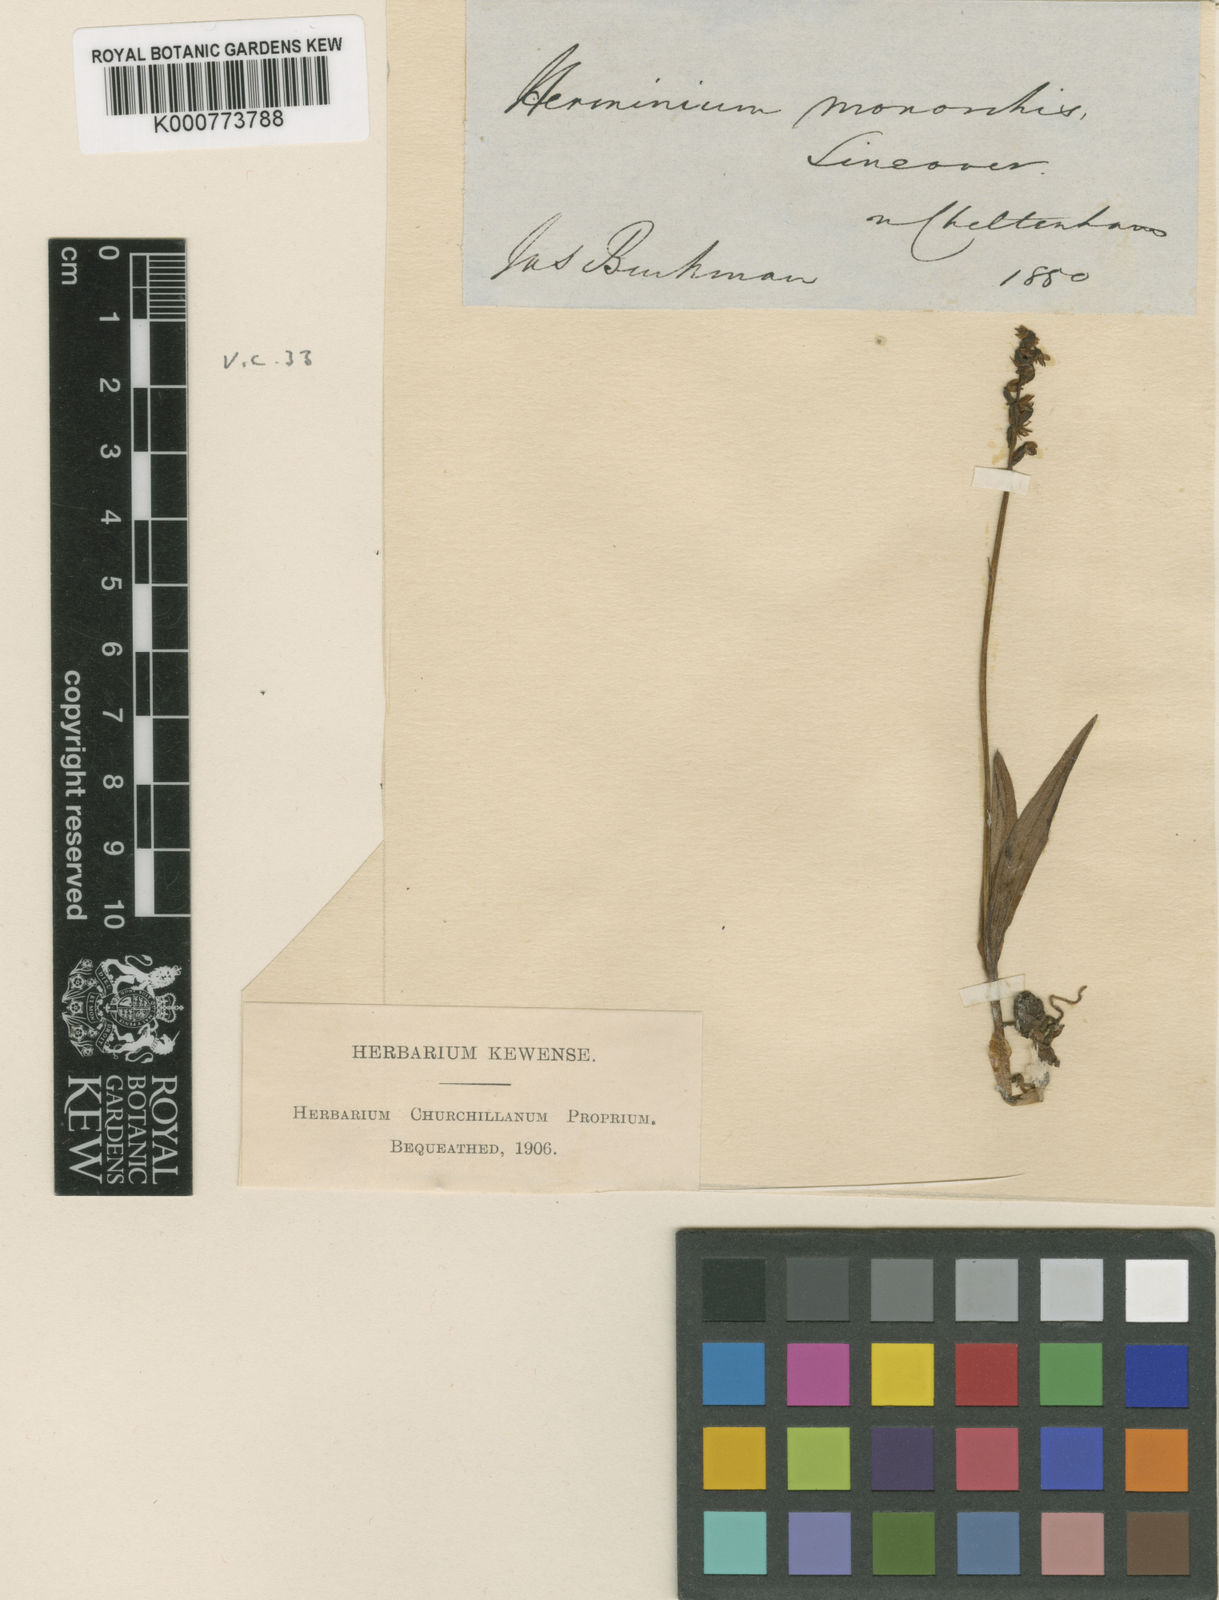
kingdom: Plantae
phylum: Tracheophyta
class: Liliopsida
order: Asparagales
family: Orchidaceae
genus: Herminium
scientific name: Herminium monorchis
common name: Musk orchid
